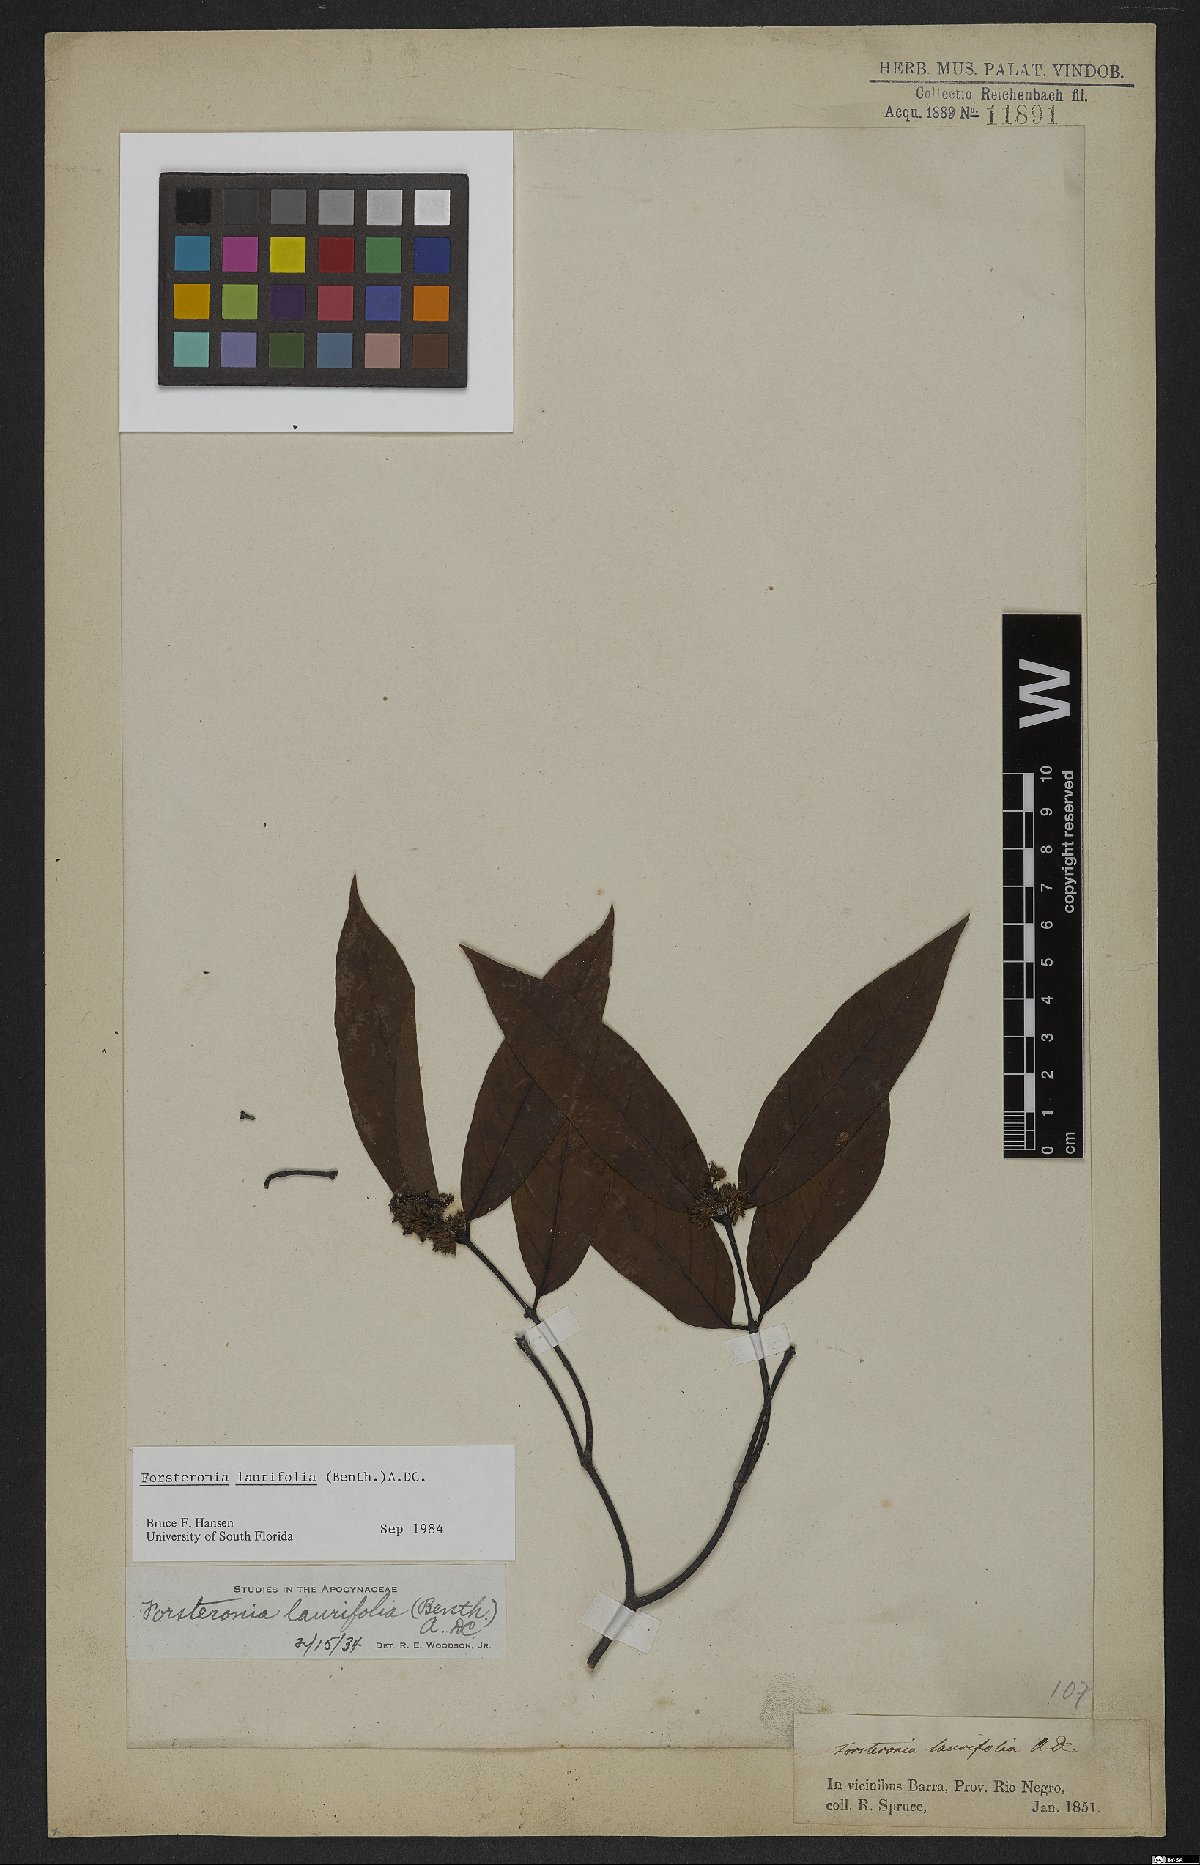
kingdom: Plantae
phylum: Tracheophyta
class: Magnoliopsida
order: Gentianales
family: Apocynaceae
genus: Forsteronia
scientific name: Forsteronia laurifolia
